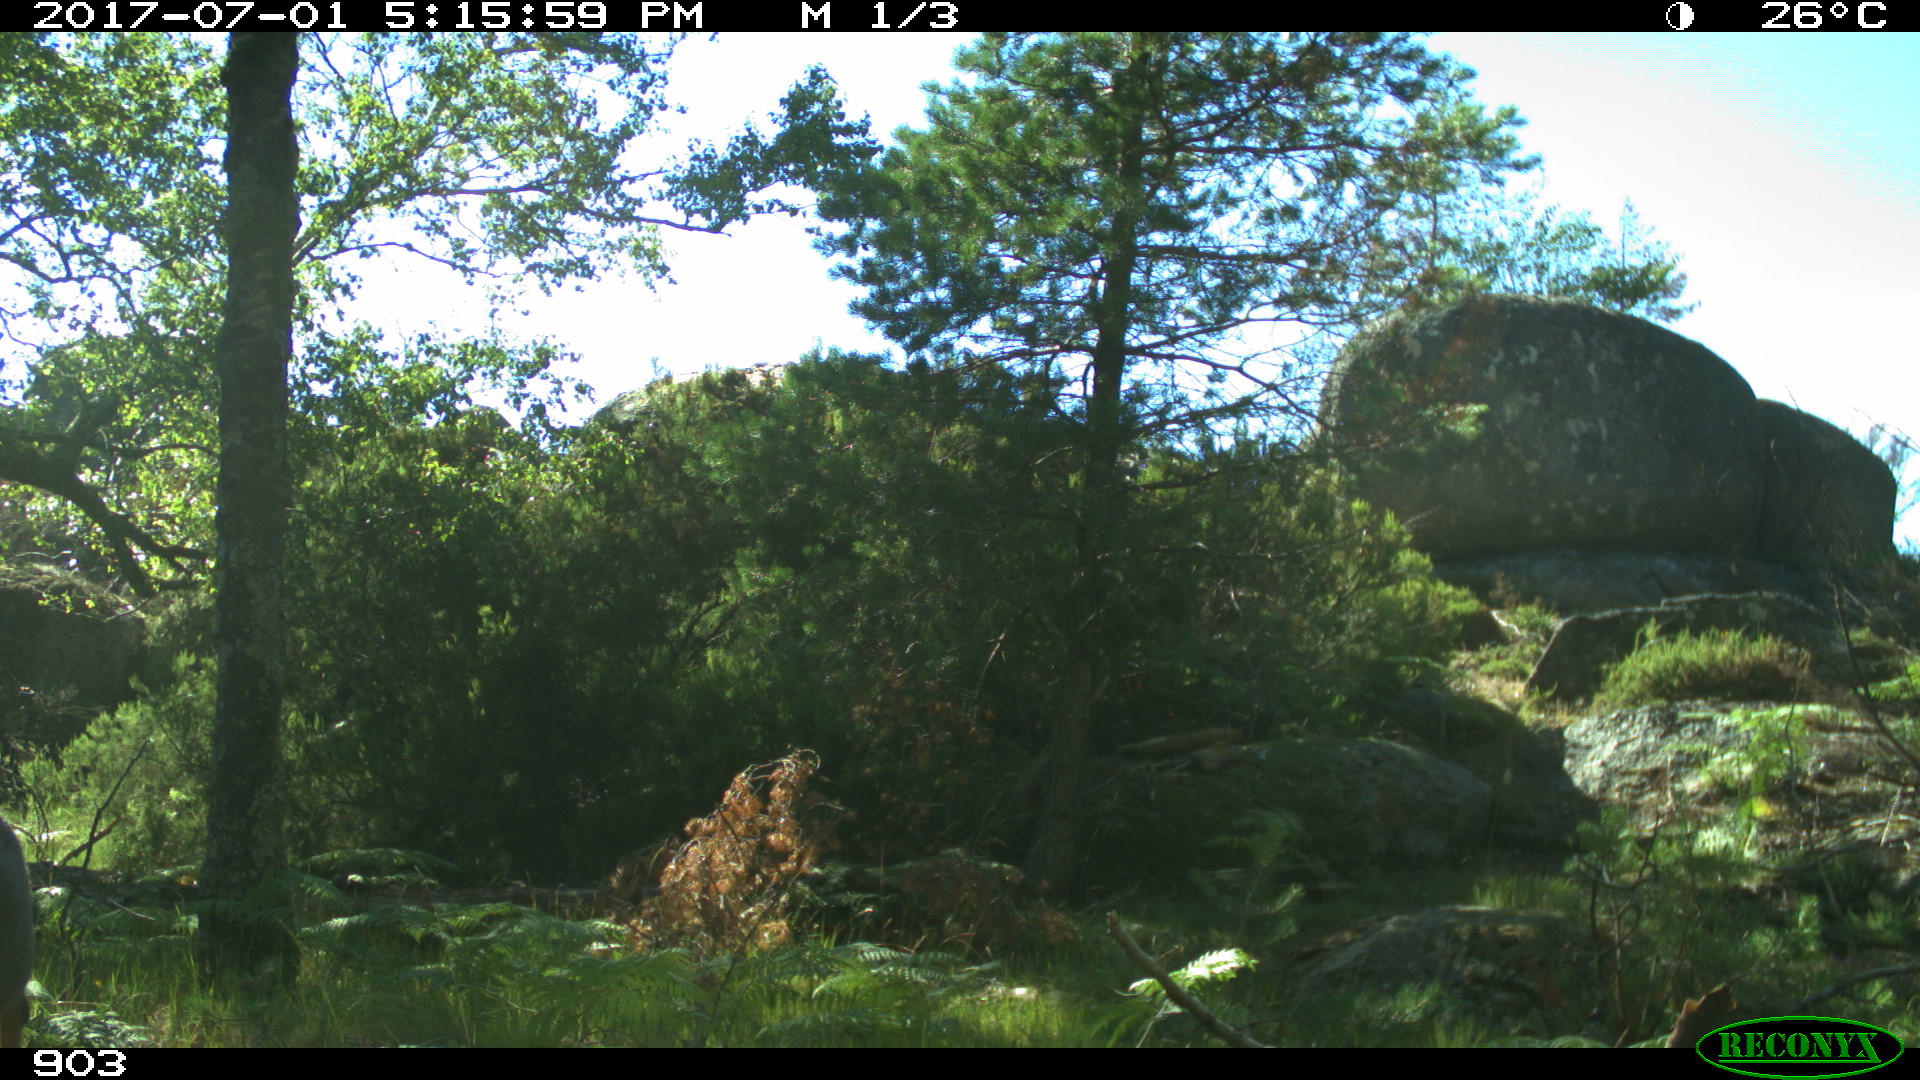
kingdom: Animalia
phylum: Chordata
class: Mammalia
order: Perissodactyla
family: Equidae
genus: Equus
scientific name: Equus caballus
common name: Horse
